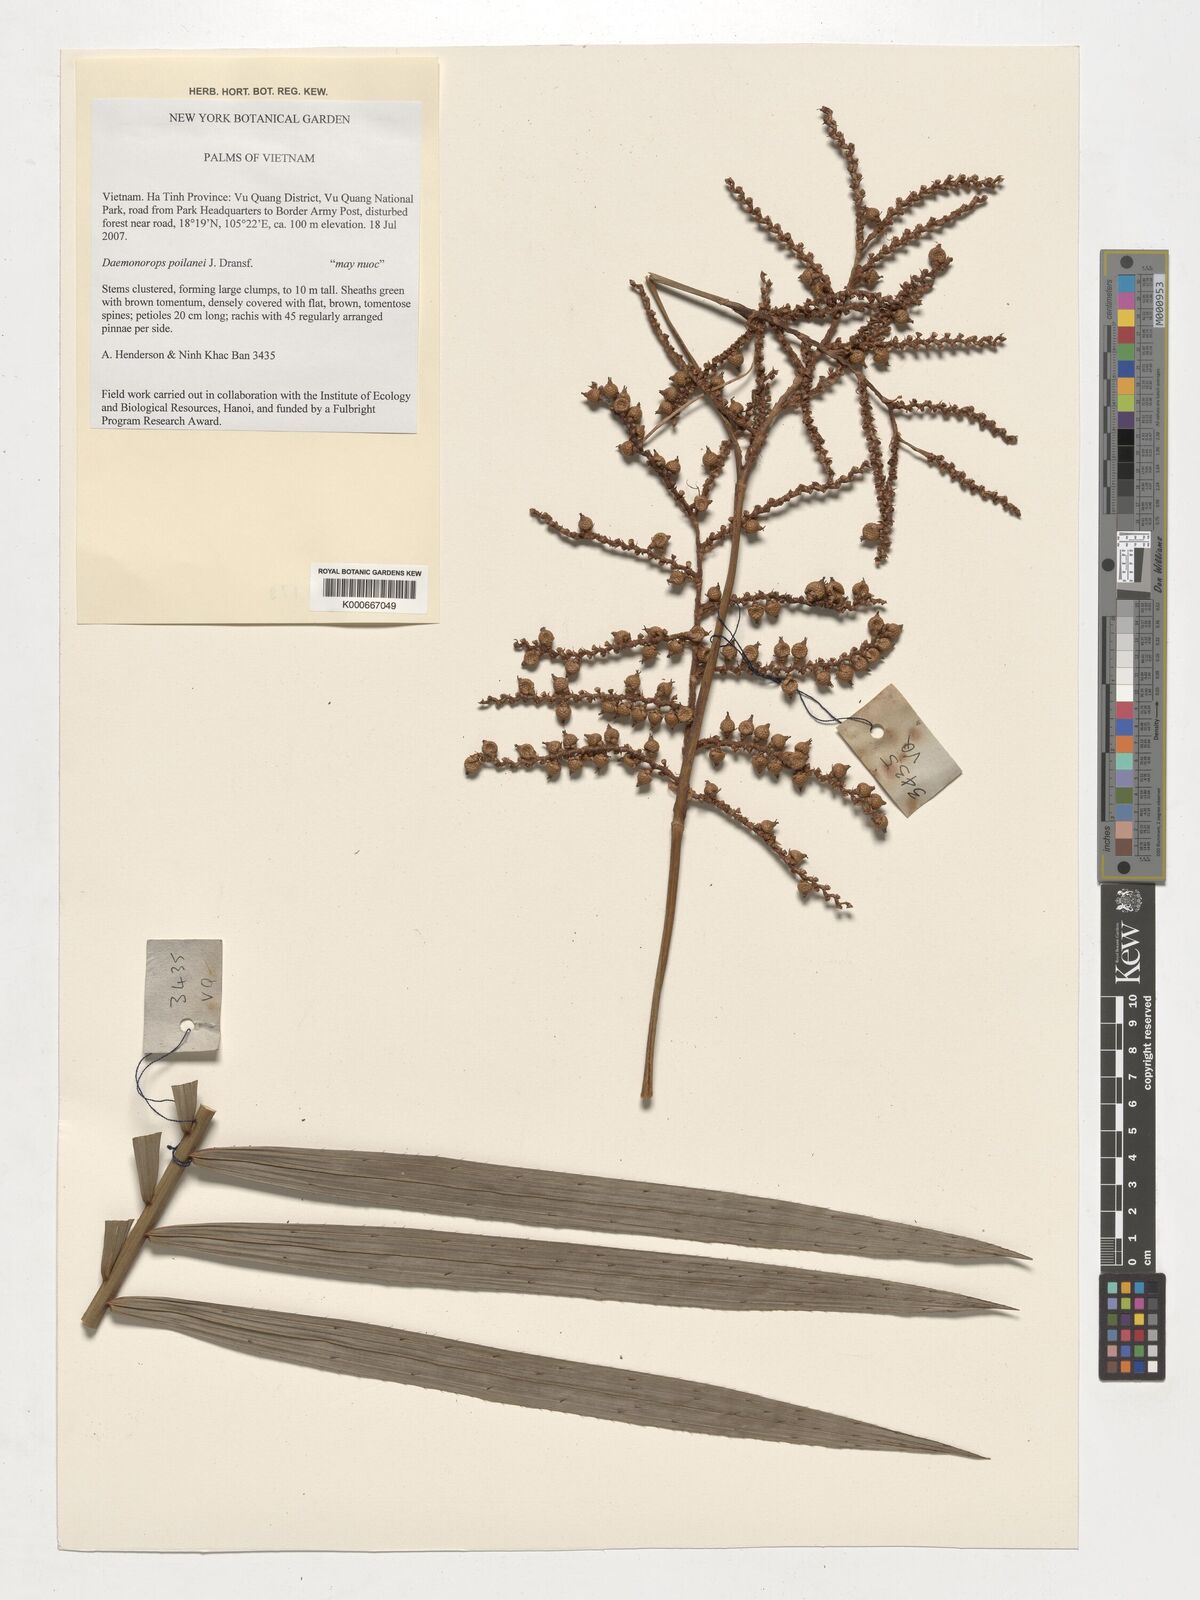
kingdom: Plantae
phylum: Tracheophyta
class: Liliopsida
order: Arecales
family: Arecaceae
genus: Calamus
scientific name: Calamus eugenei
